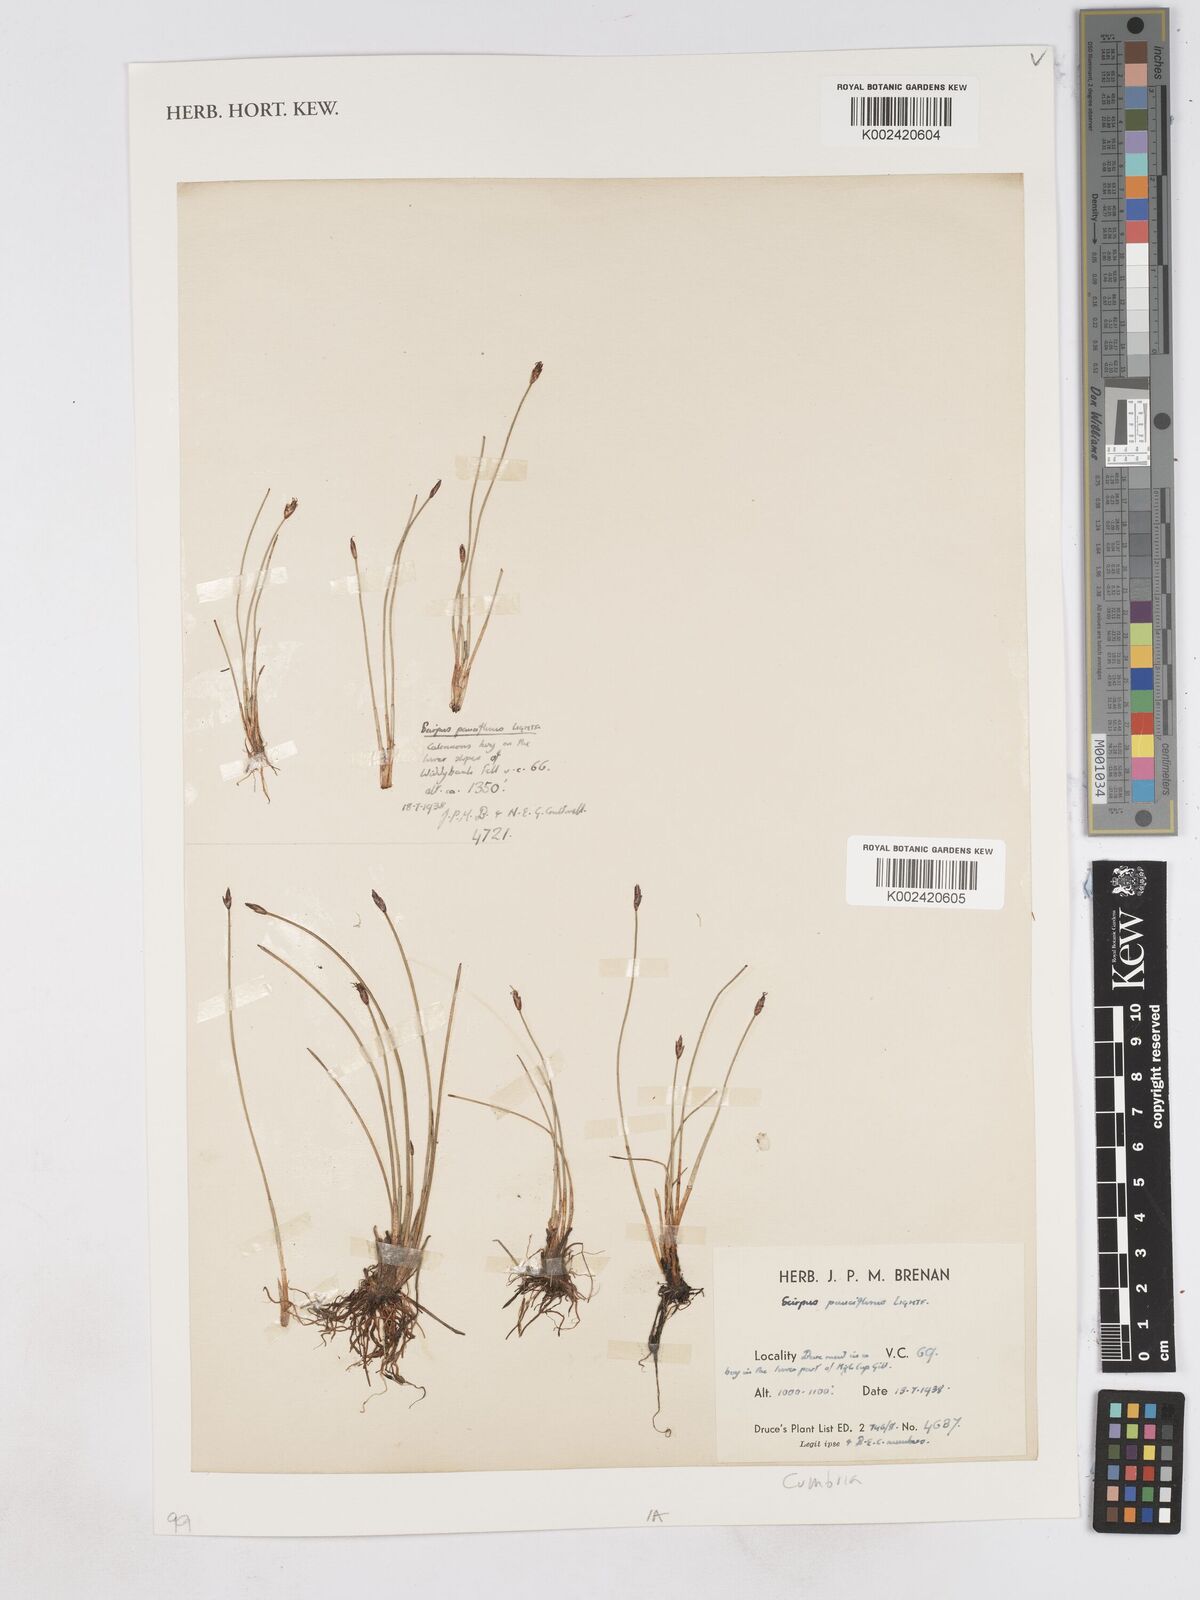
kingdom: Plantae
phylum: Tracheophyta
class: Liliopsida
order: Poales
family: Cyperaceae
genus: Eleocharis
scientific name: Eleocharis quinqueflora
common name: Few-flowered spike-rush
